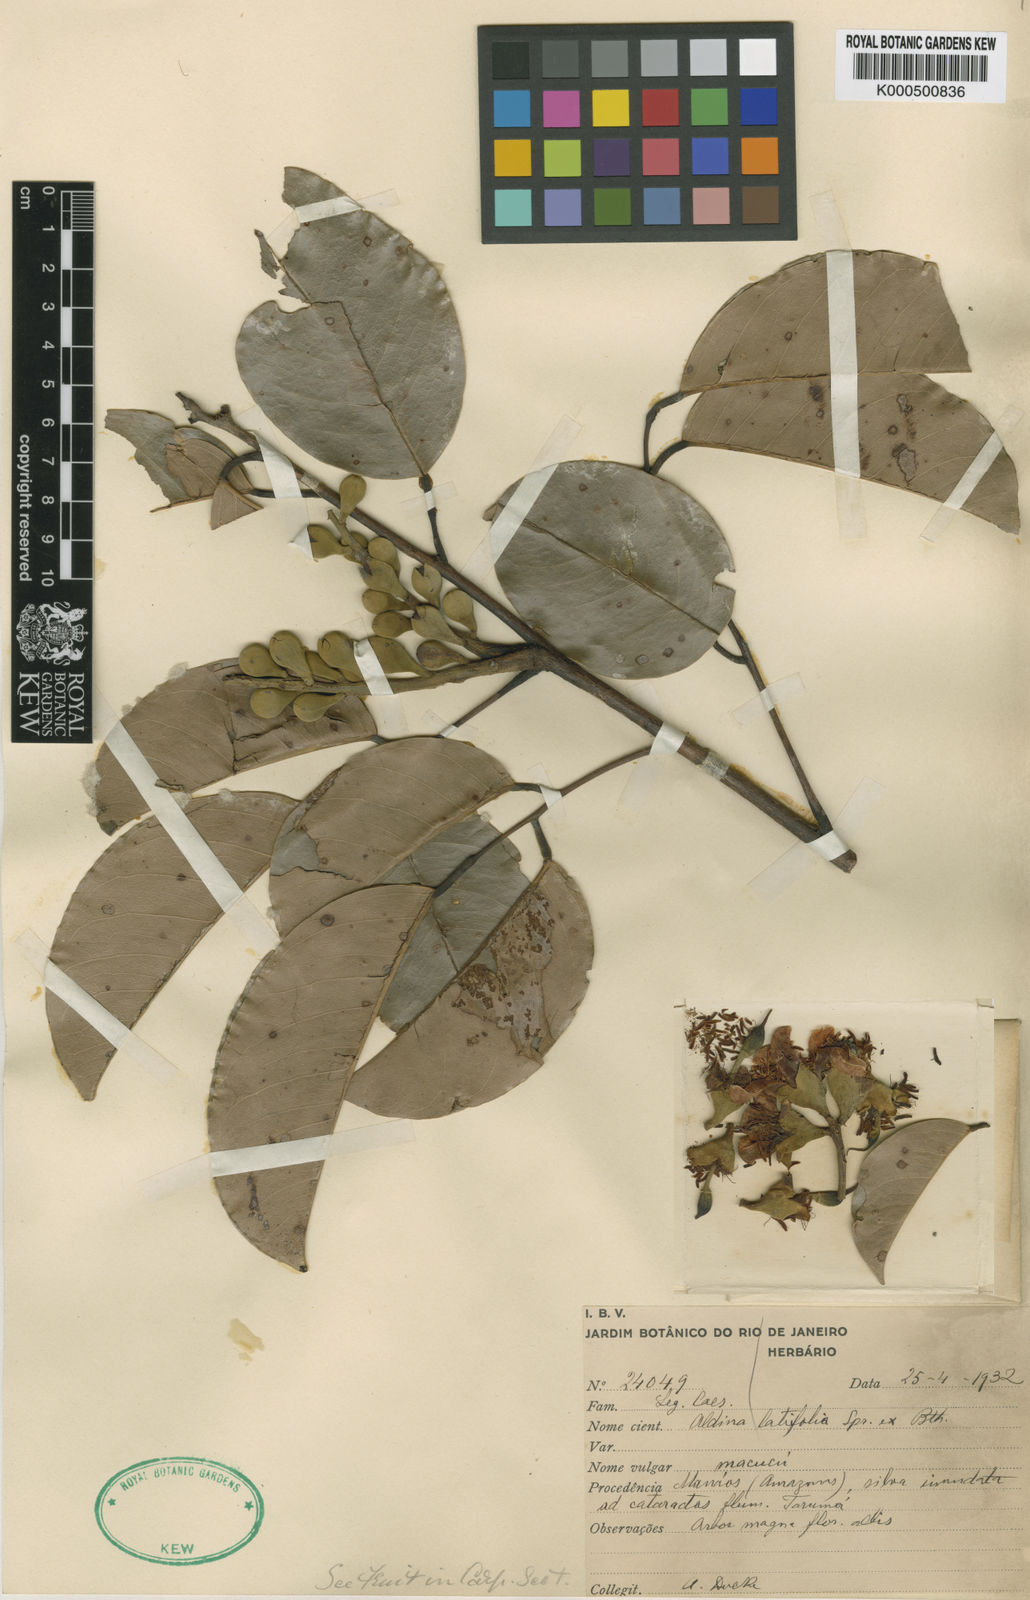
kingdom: Plantae
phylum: Tracheophyta
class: Magnoliopsida
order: Fabales
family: Fabaceae
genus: Aldina
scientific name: Aldina latifolia
